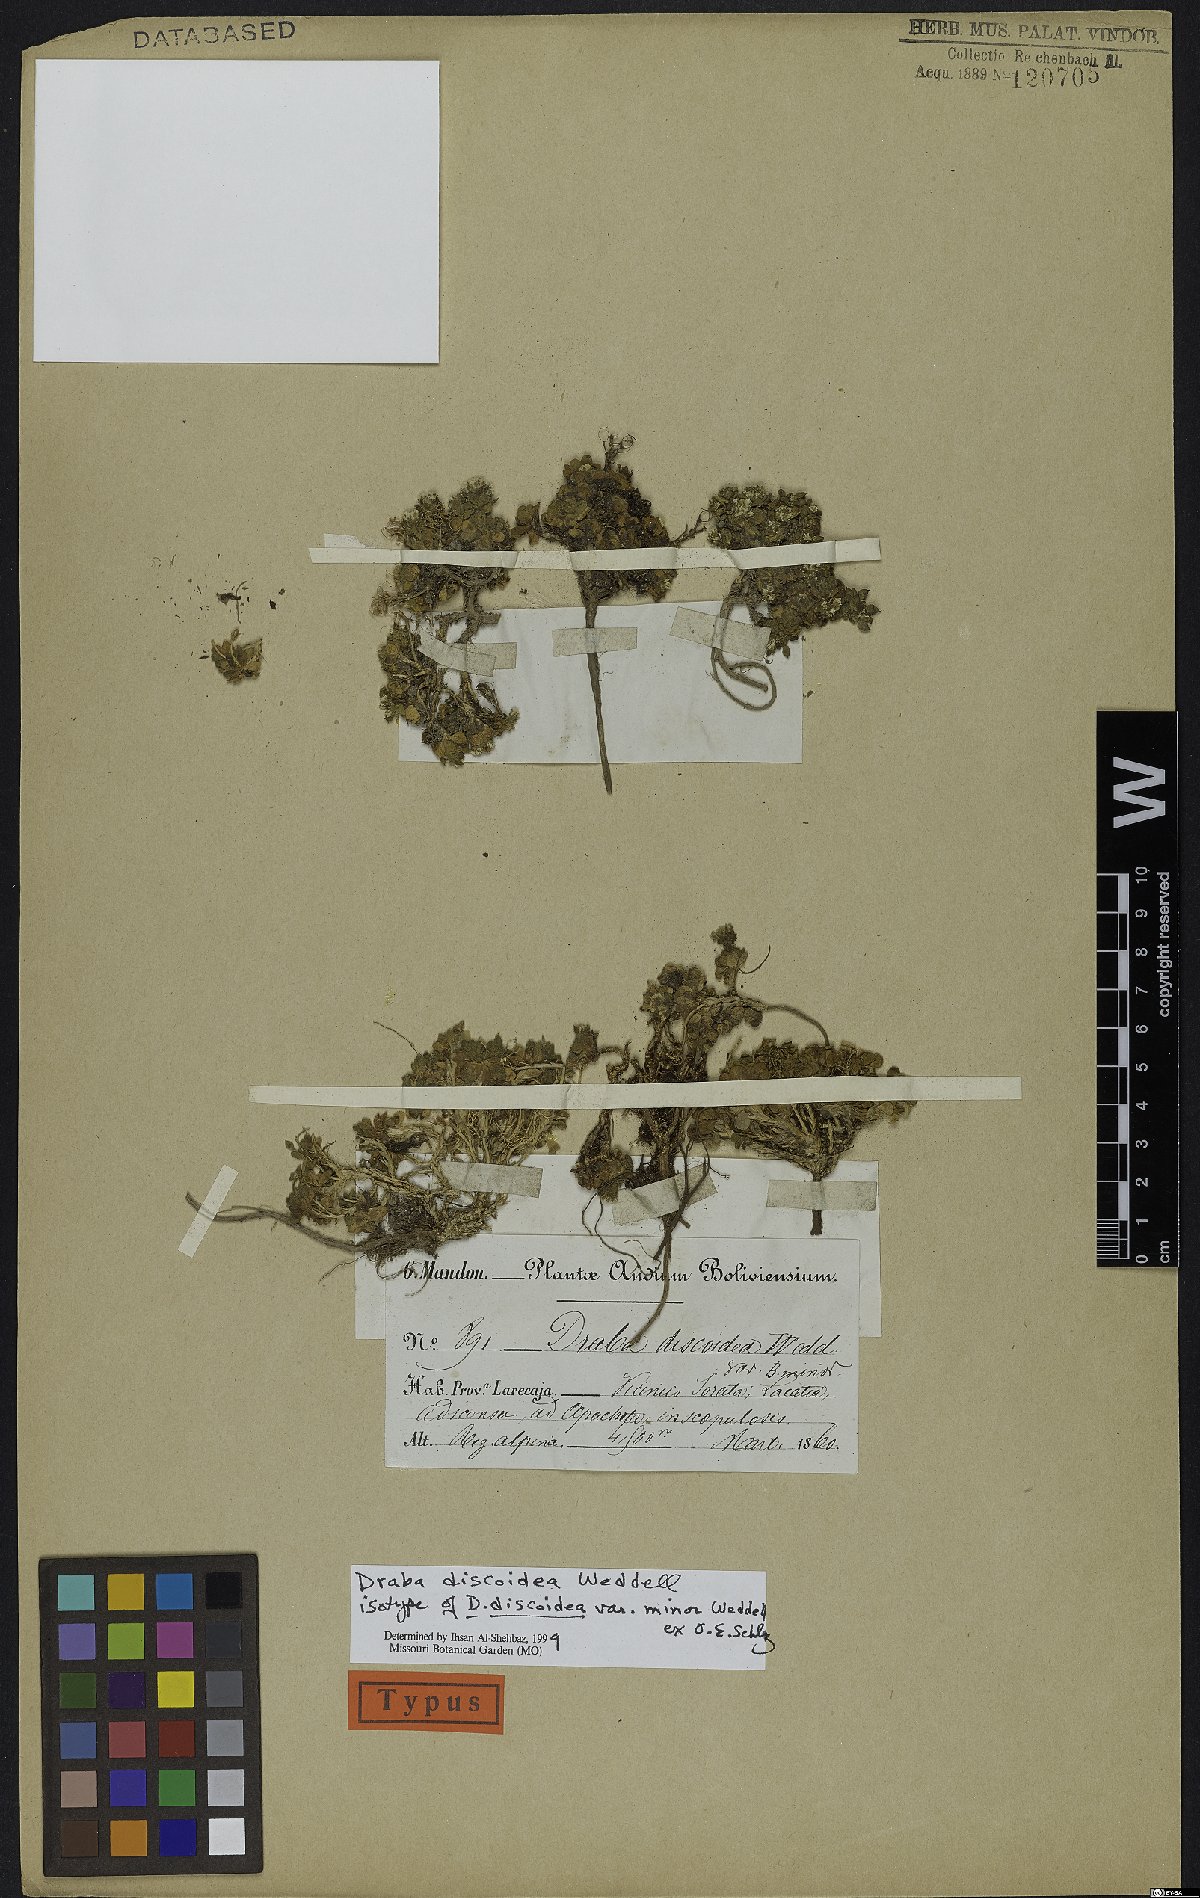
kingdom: Plantae
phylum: Tracheophyta
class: Magnoliopsida
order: Brassicales
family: Brassicaceae
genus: Draba
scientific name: Draba discoidea
